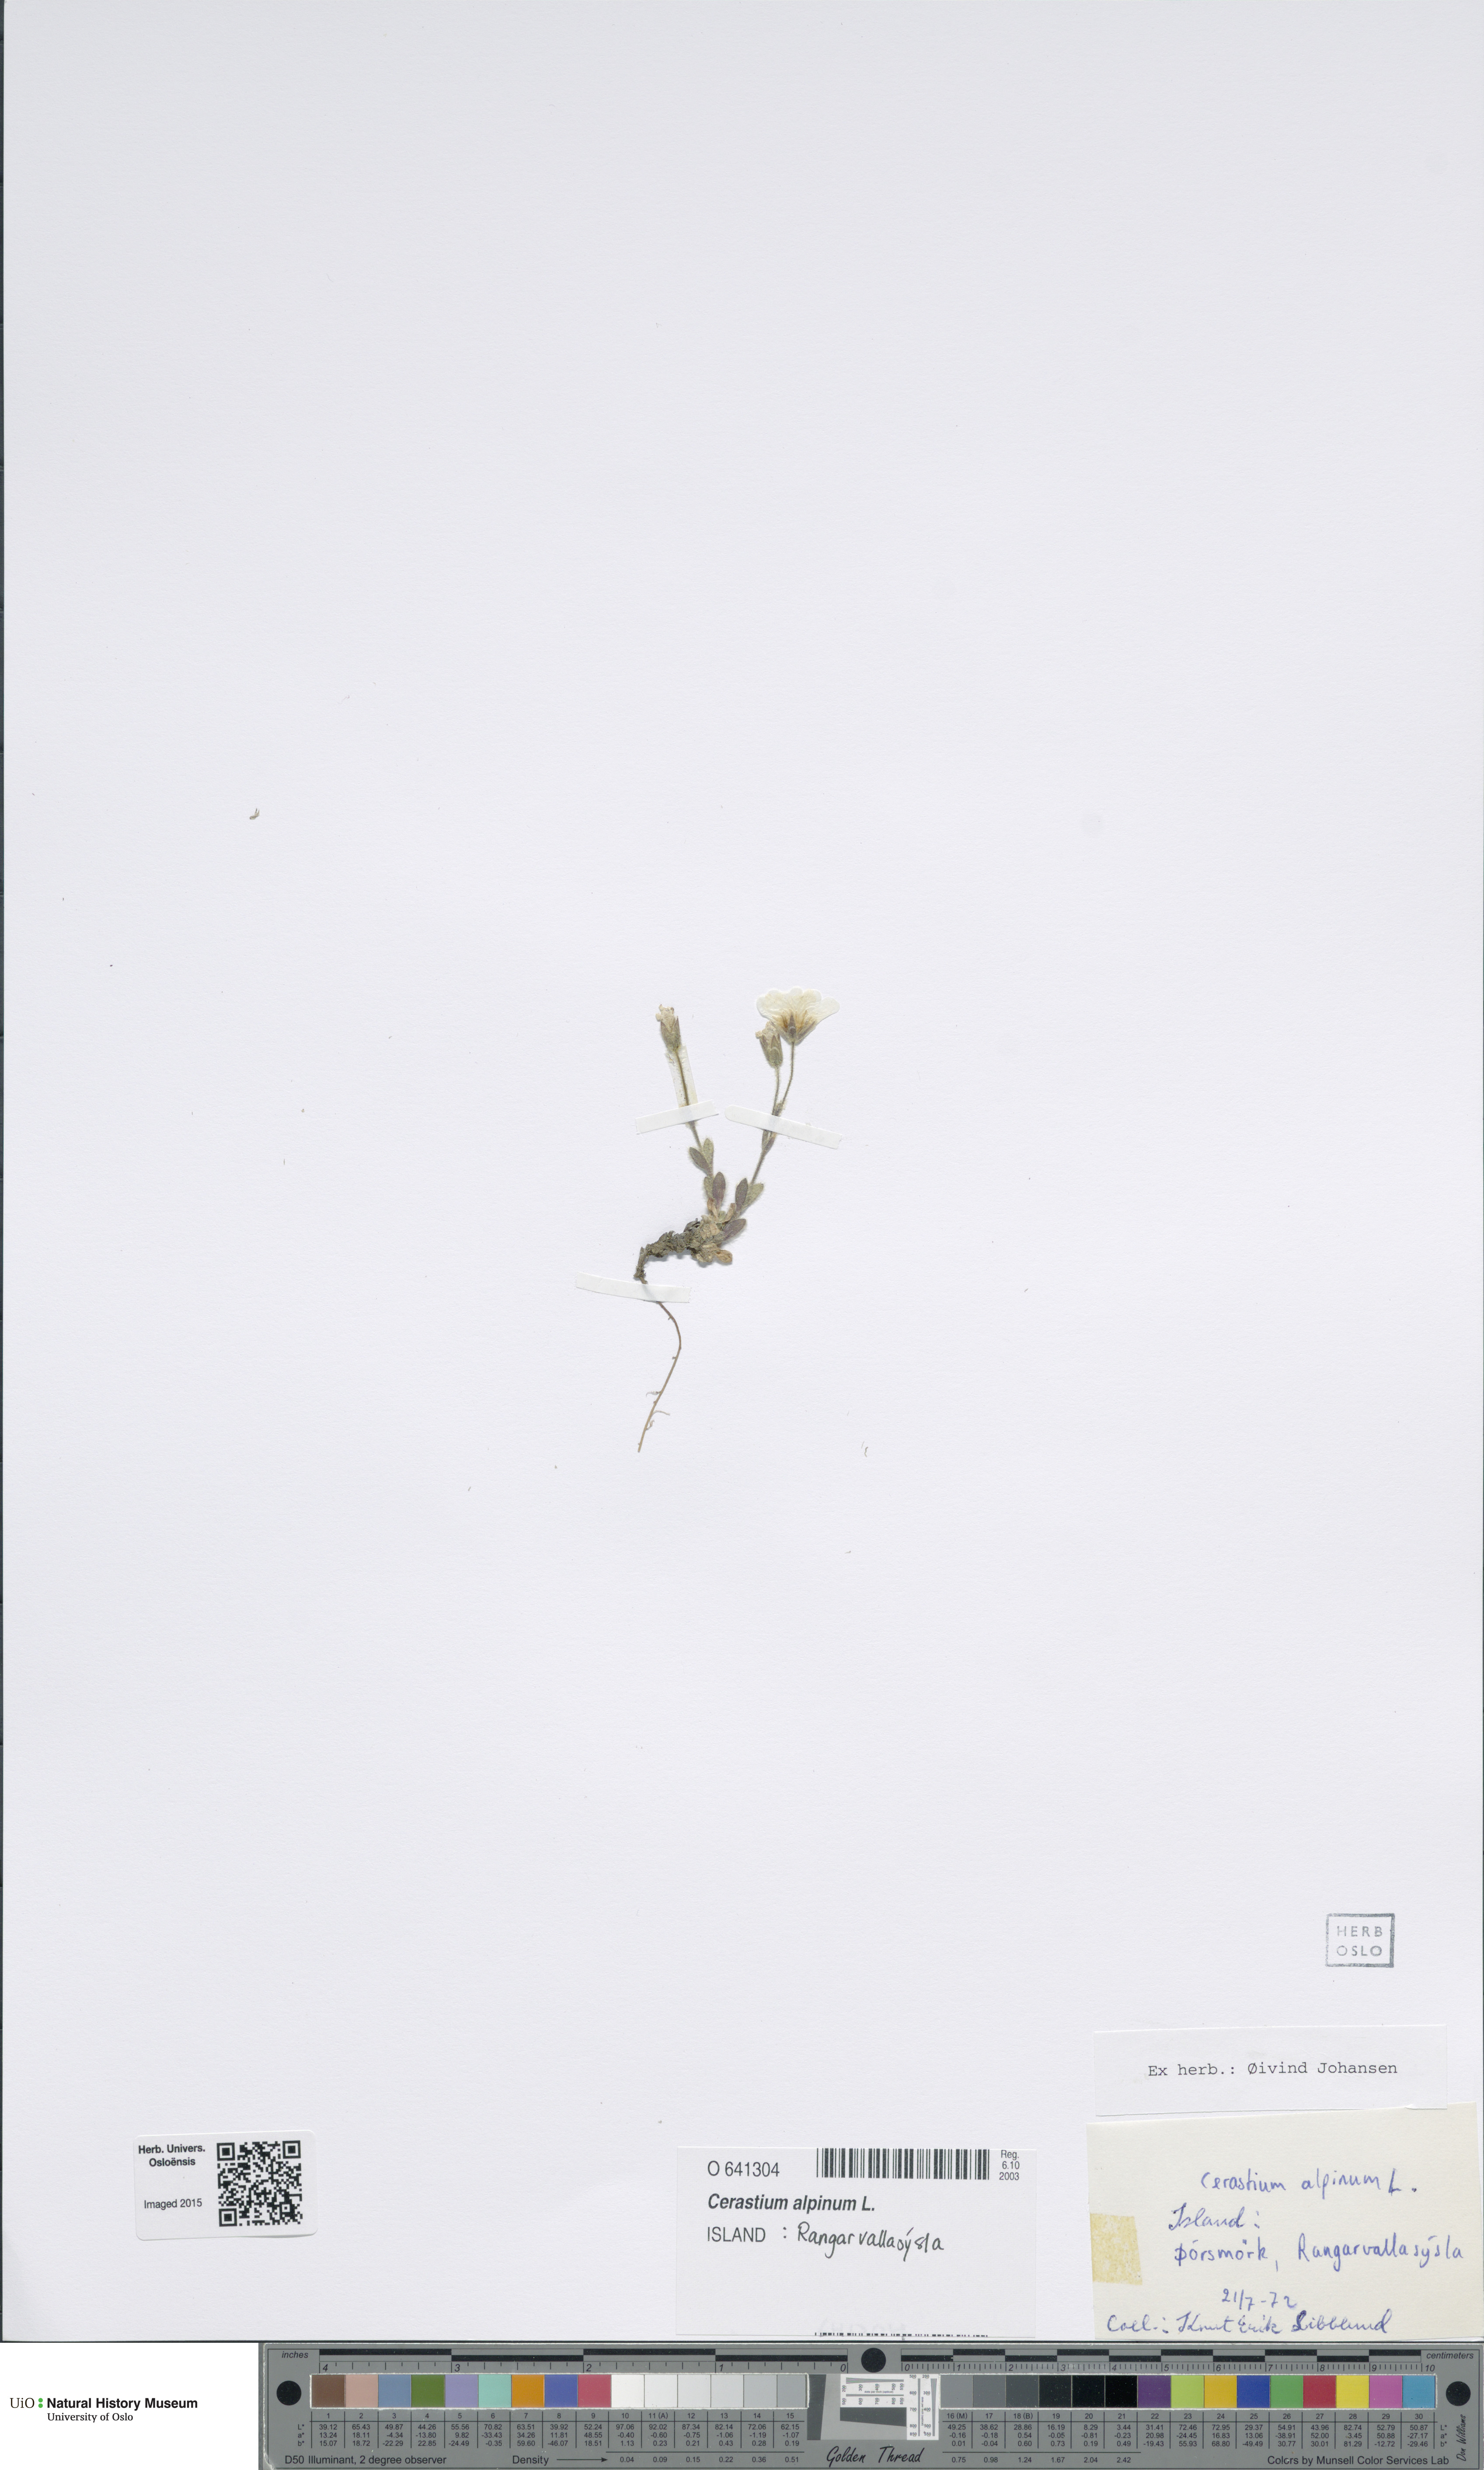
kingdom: Plantae
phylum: Tracheophyta
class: Magnoliopsida
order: Caryophyllales
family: Caryophyllaceae
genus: Cerastium
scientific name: Cerastium alpinum
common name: Alpine mouse-ear
